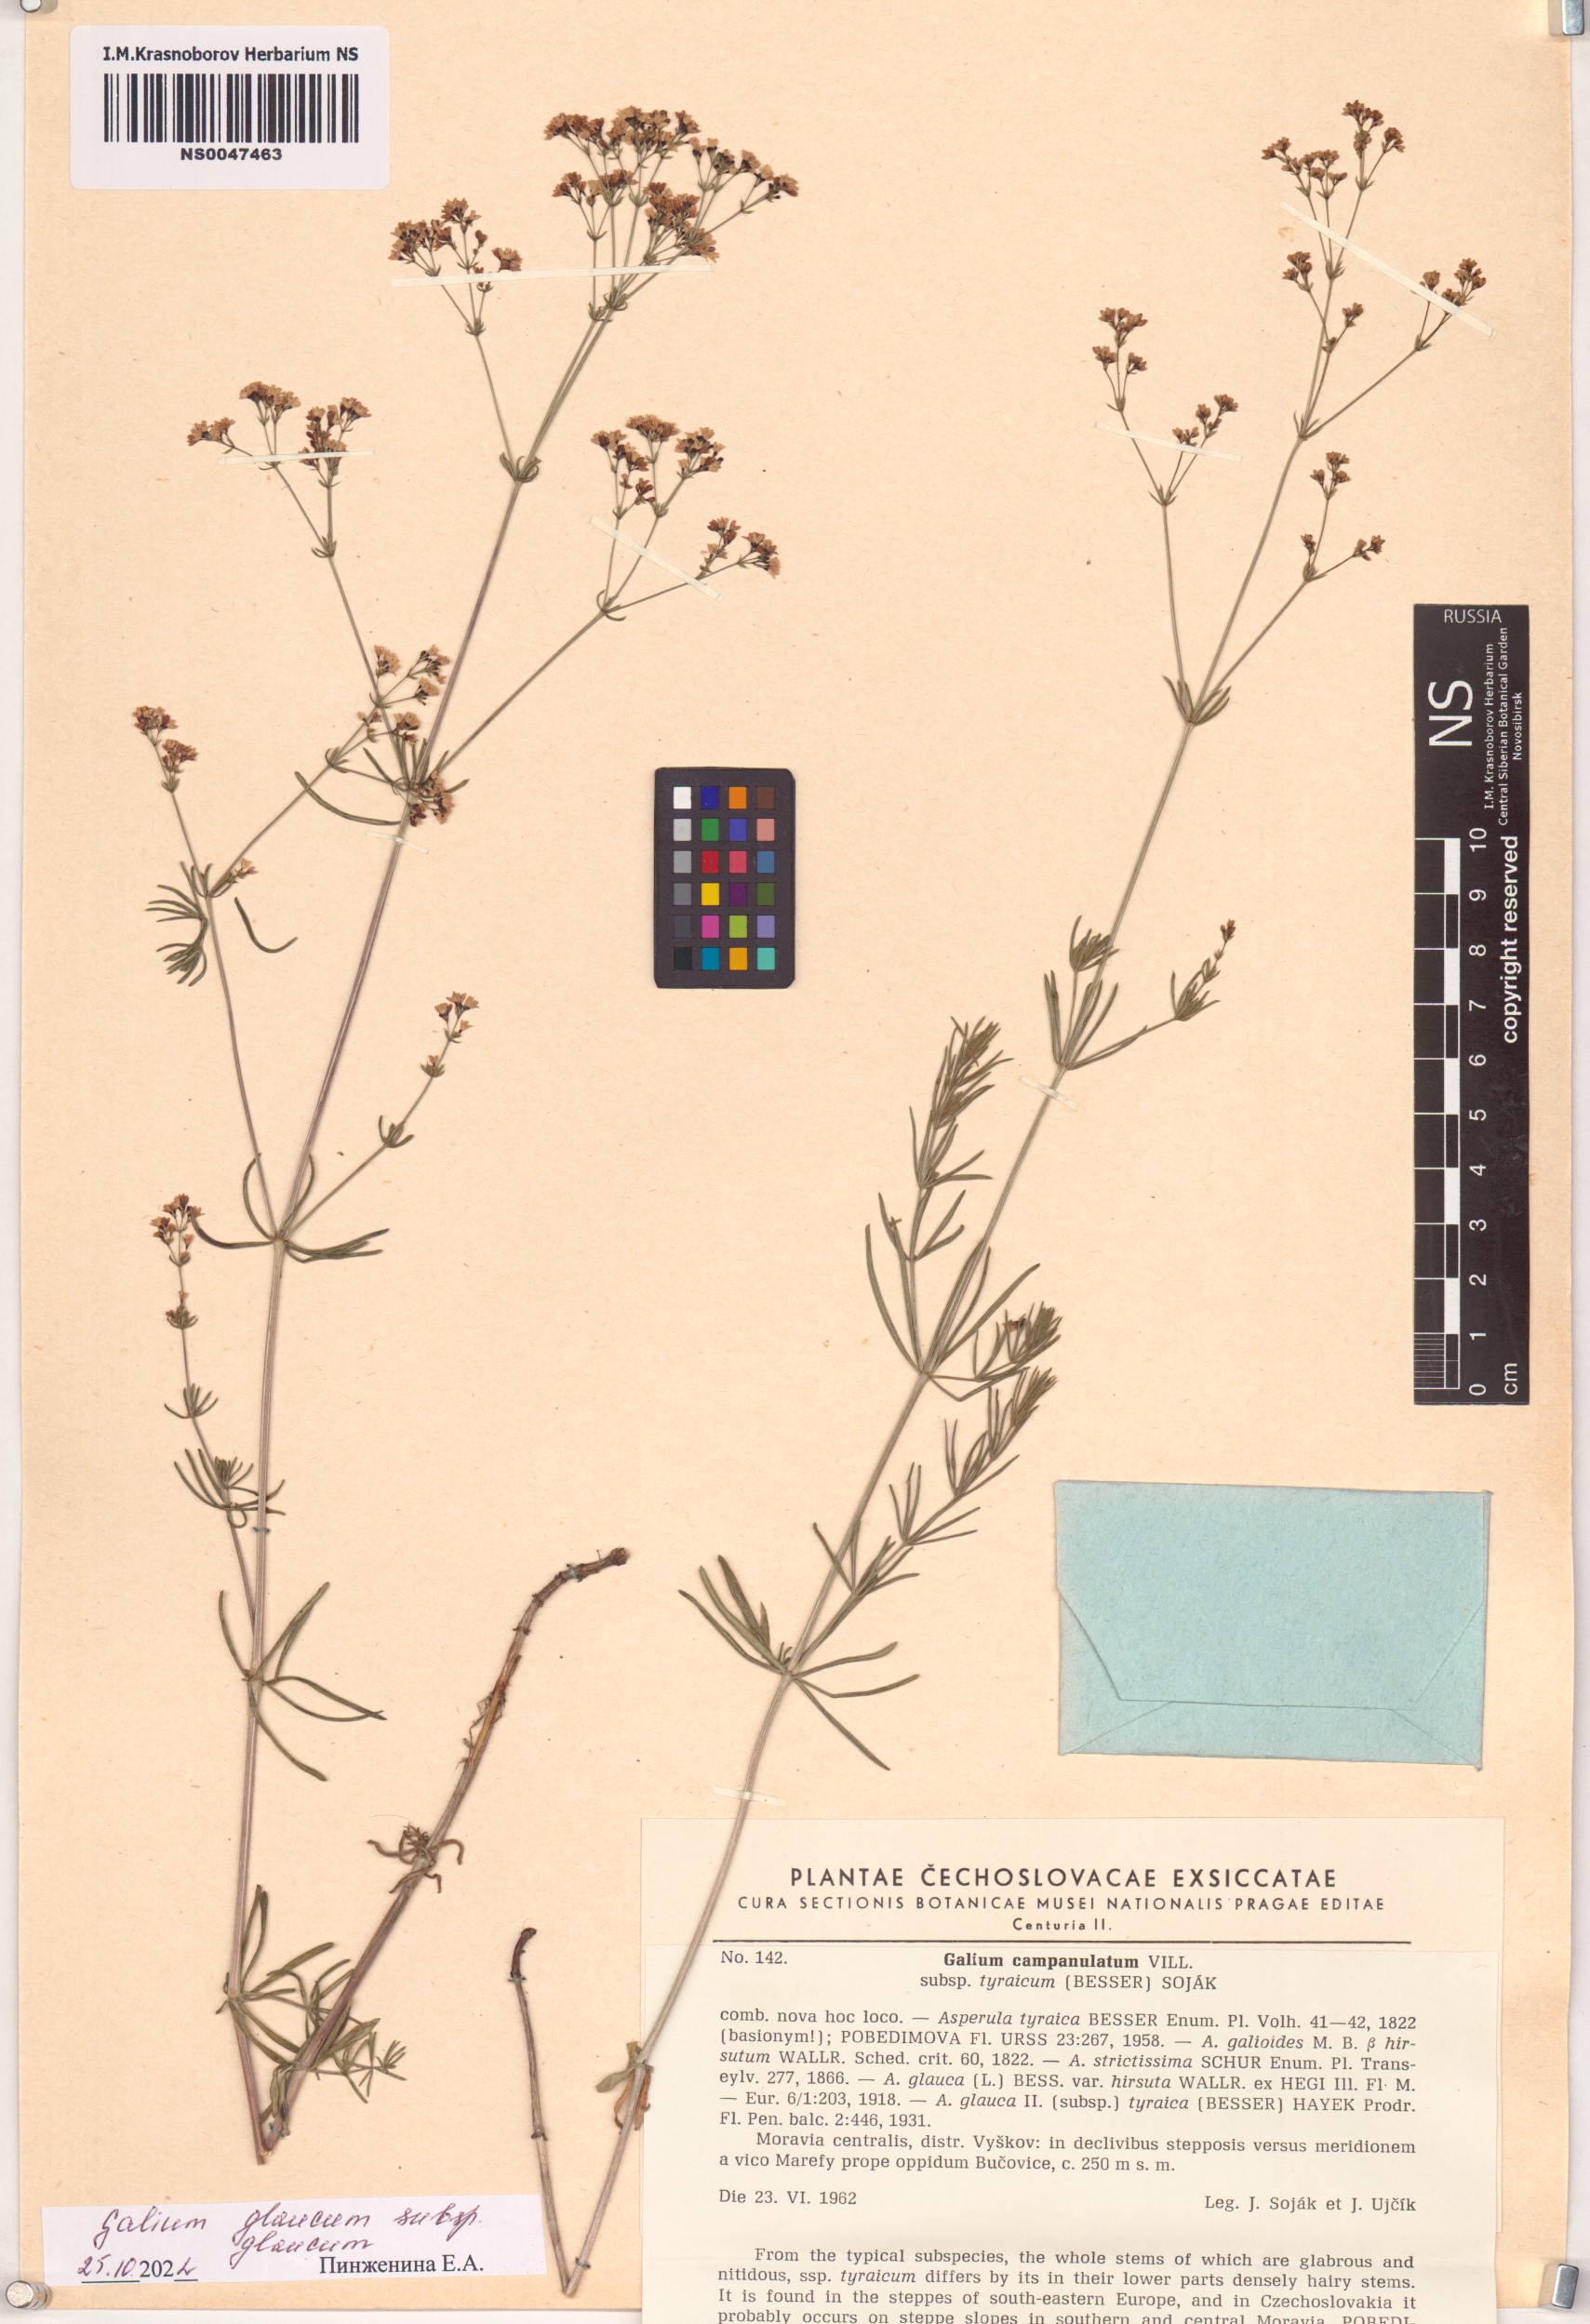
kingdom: Plantae
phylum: Tracheophyta
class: Magnoliopsida
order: Gentianales
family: Rubiaceae
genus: Galium
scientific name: Galium glaucum
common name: Waxy bedstraw
